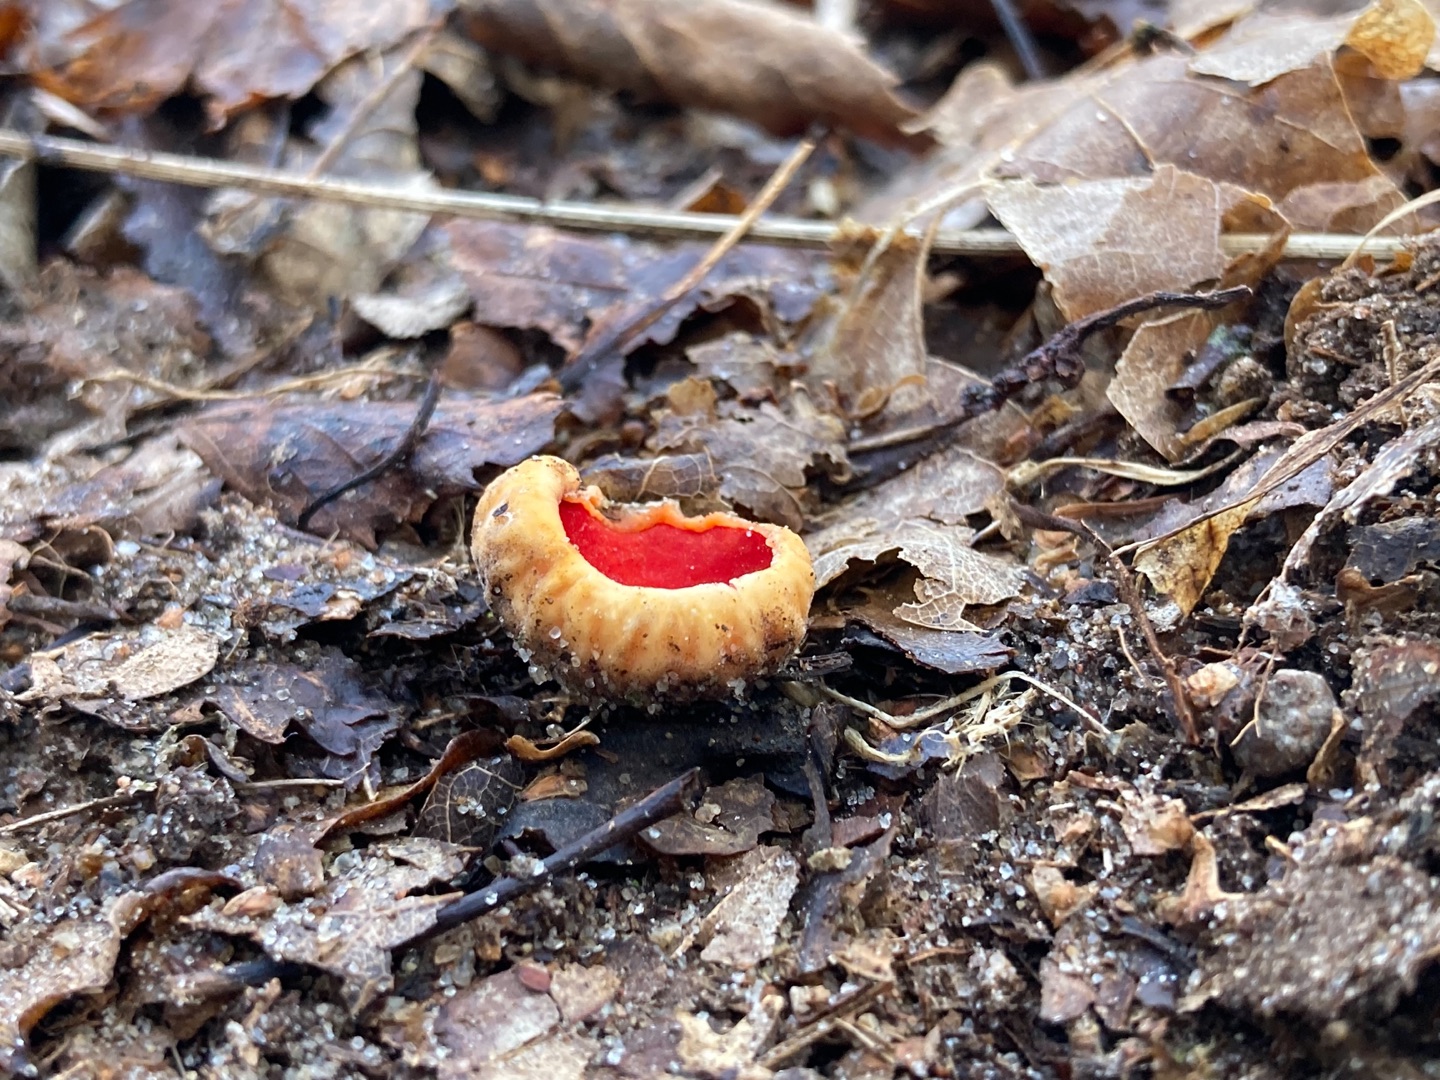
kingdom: Fungi
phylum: Ascomycota
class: Pezizomycetes
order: Pezizales
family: Sarcoscyphaceae
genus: Sarcoscypha
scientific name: Sarcoscypha
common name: Pragtbæger
